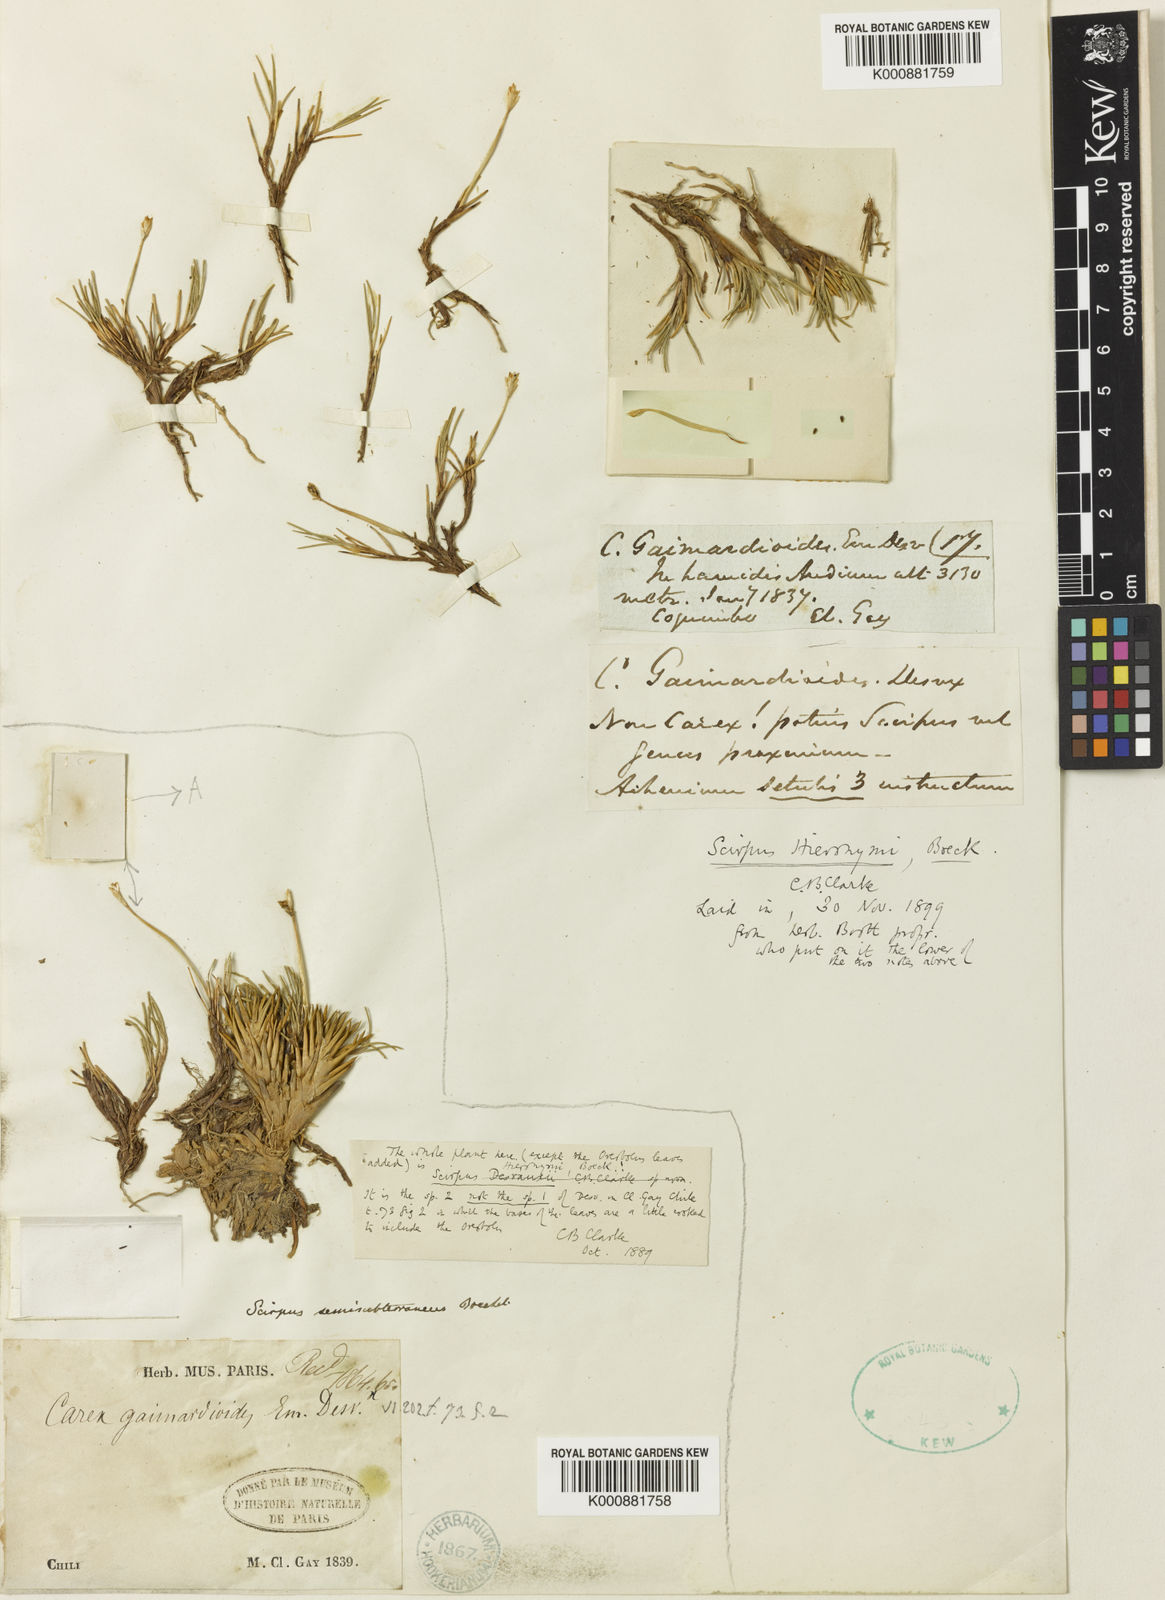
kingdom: Plantae
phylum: Tracheophyta
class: Liliopsida
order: Poales
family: Cyperaceae
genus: Zameioscirpus
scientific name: Zameioscirpus atacamensis
